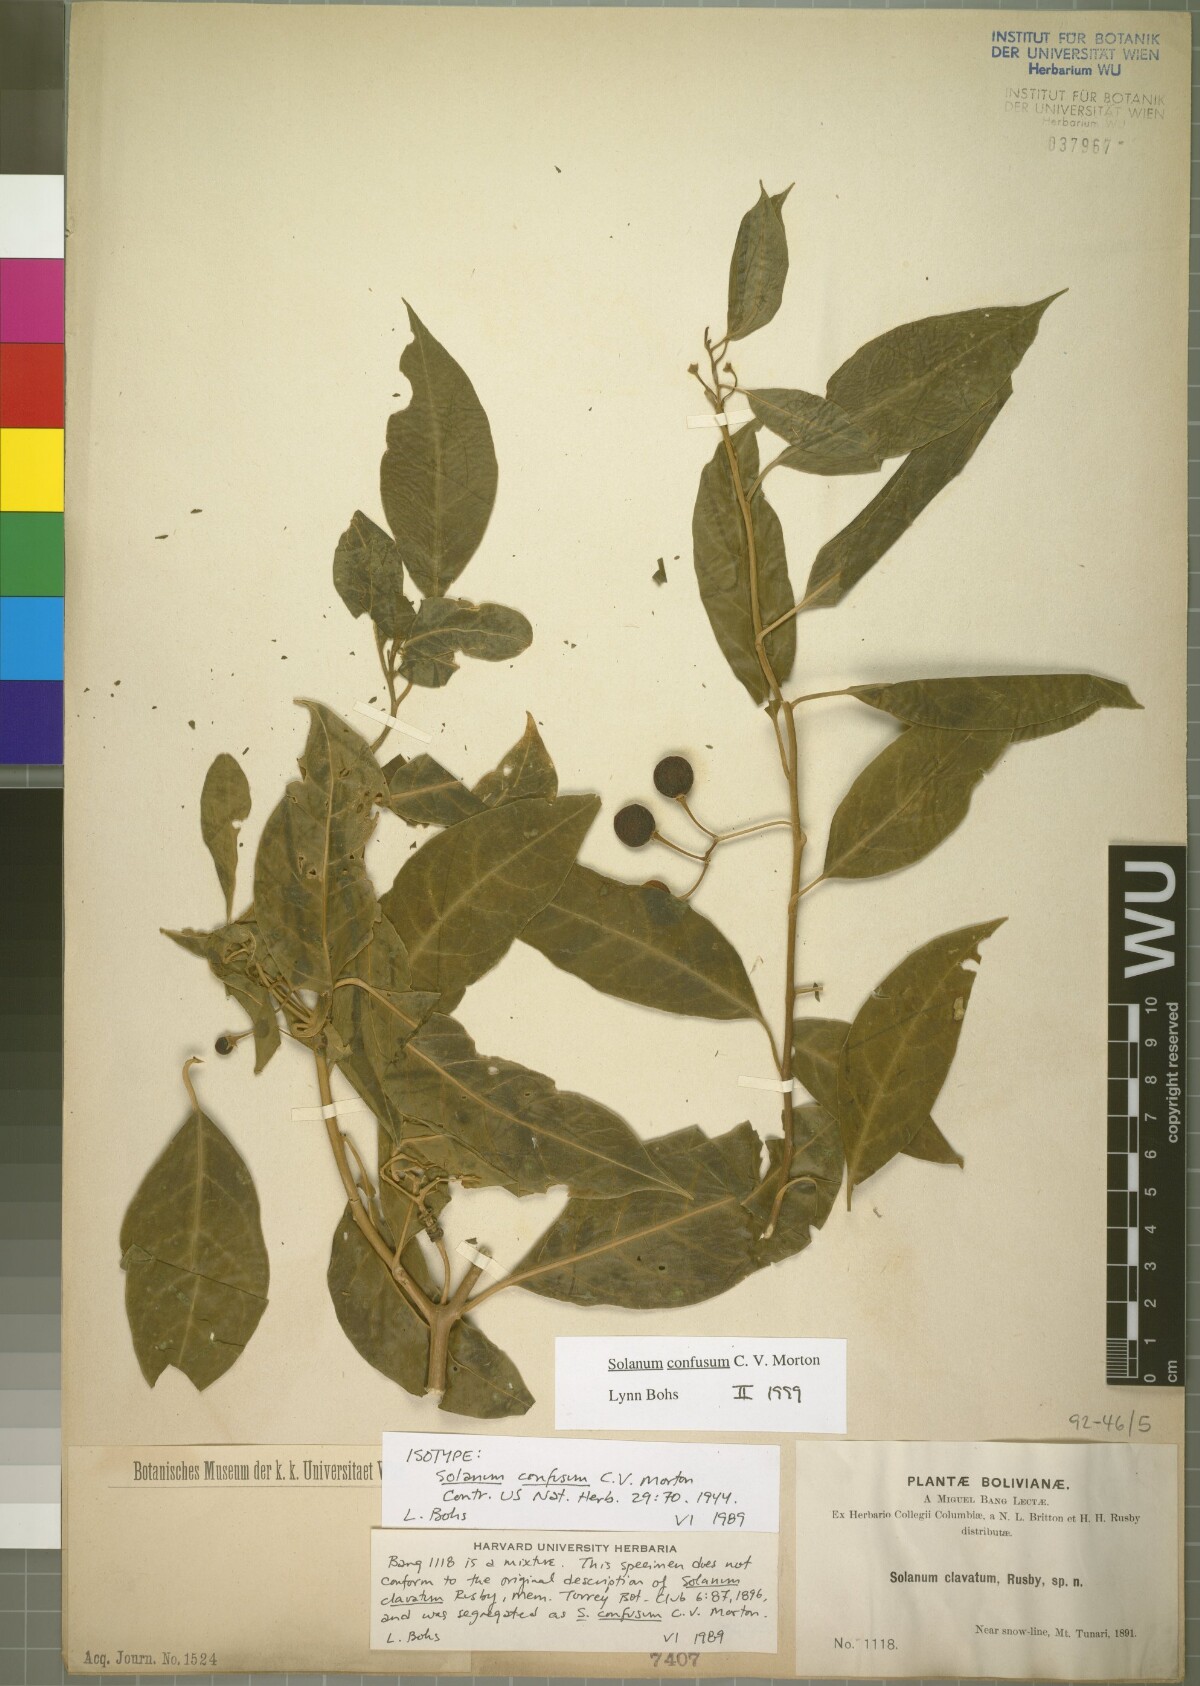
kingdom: Plantae
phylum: Tracheophyta
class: Magnoliopsida
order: Solanales
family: Solanaceae
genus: Solanum
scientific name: Solanum confusum
